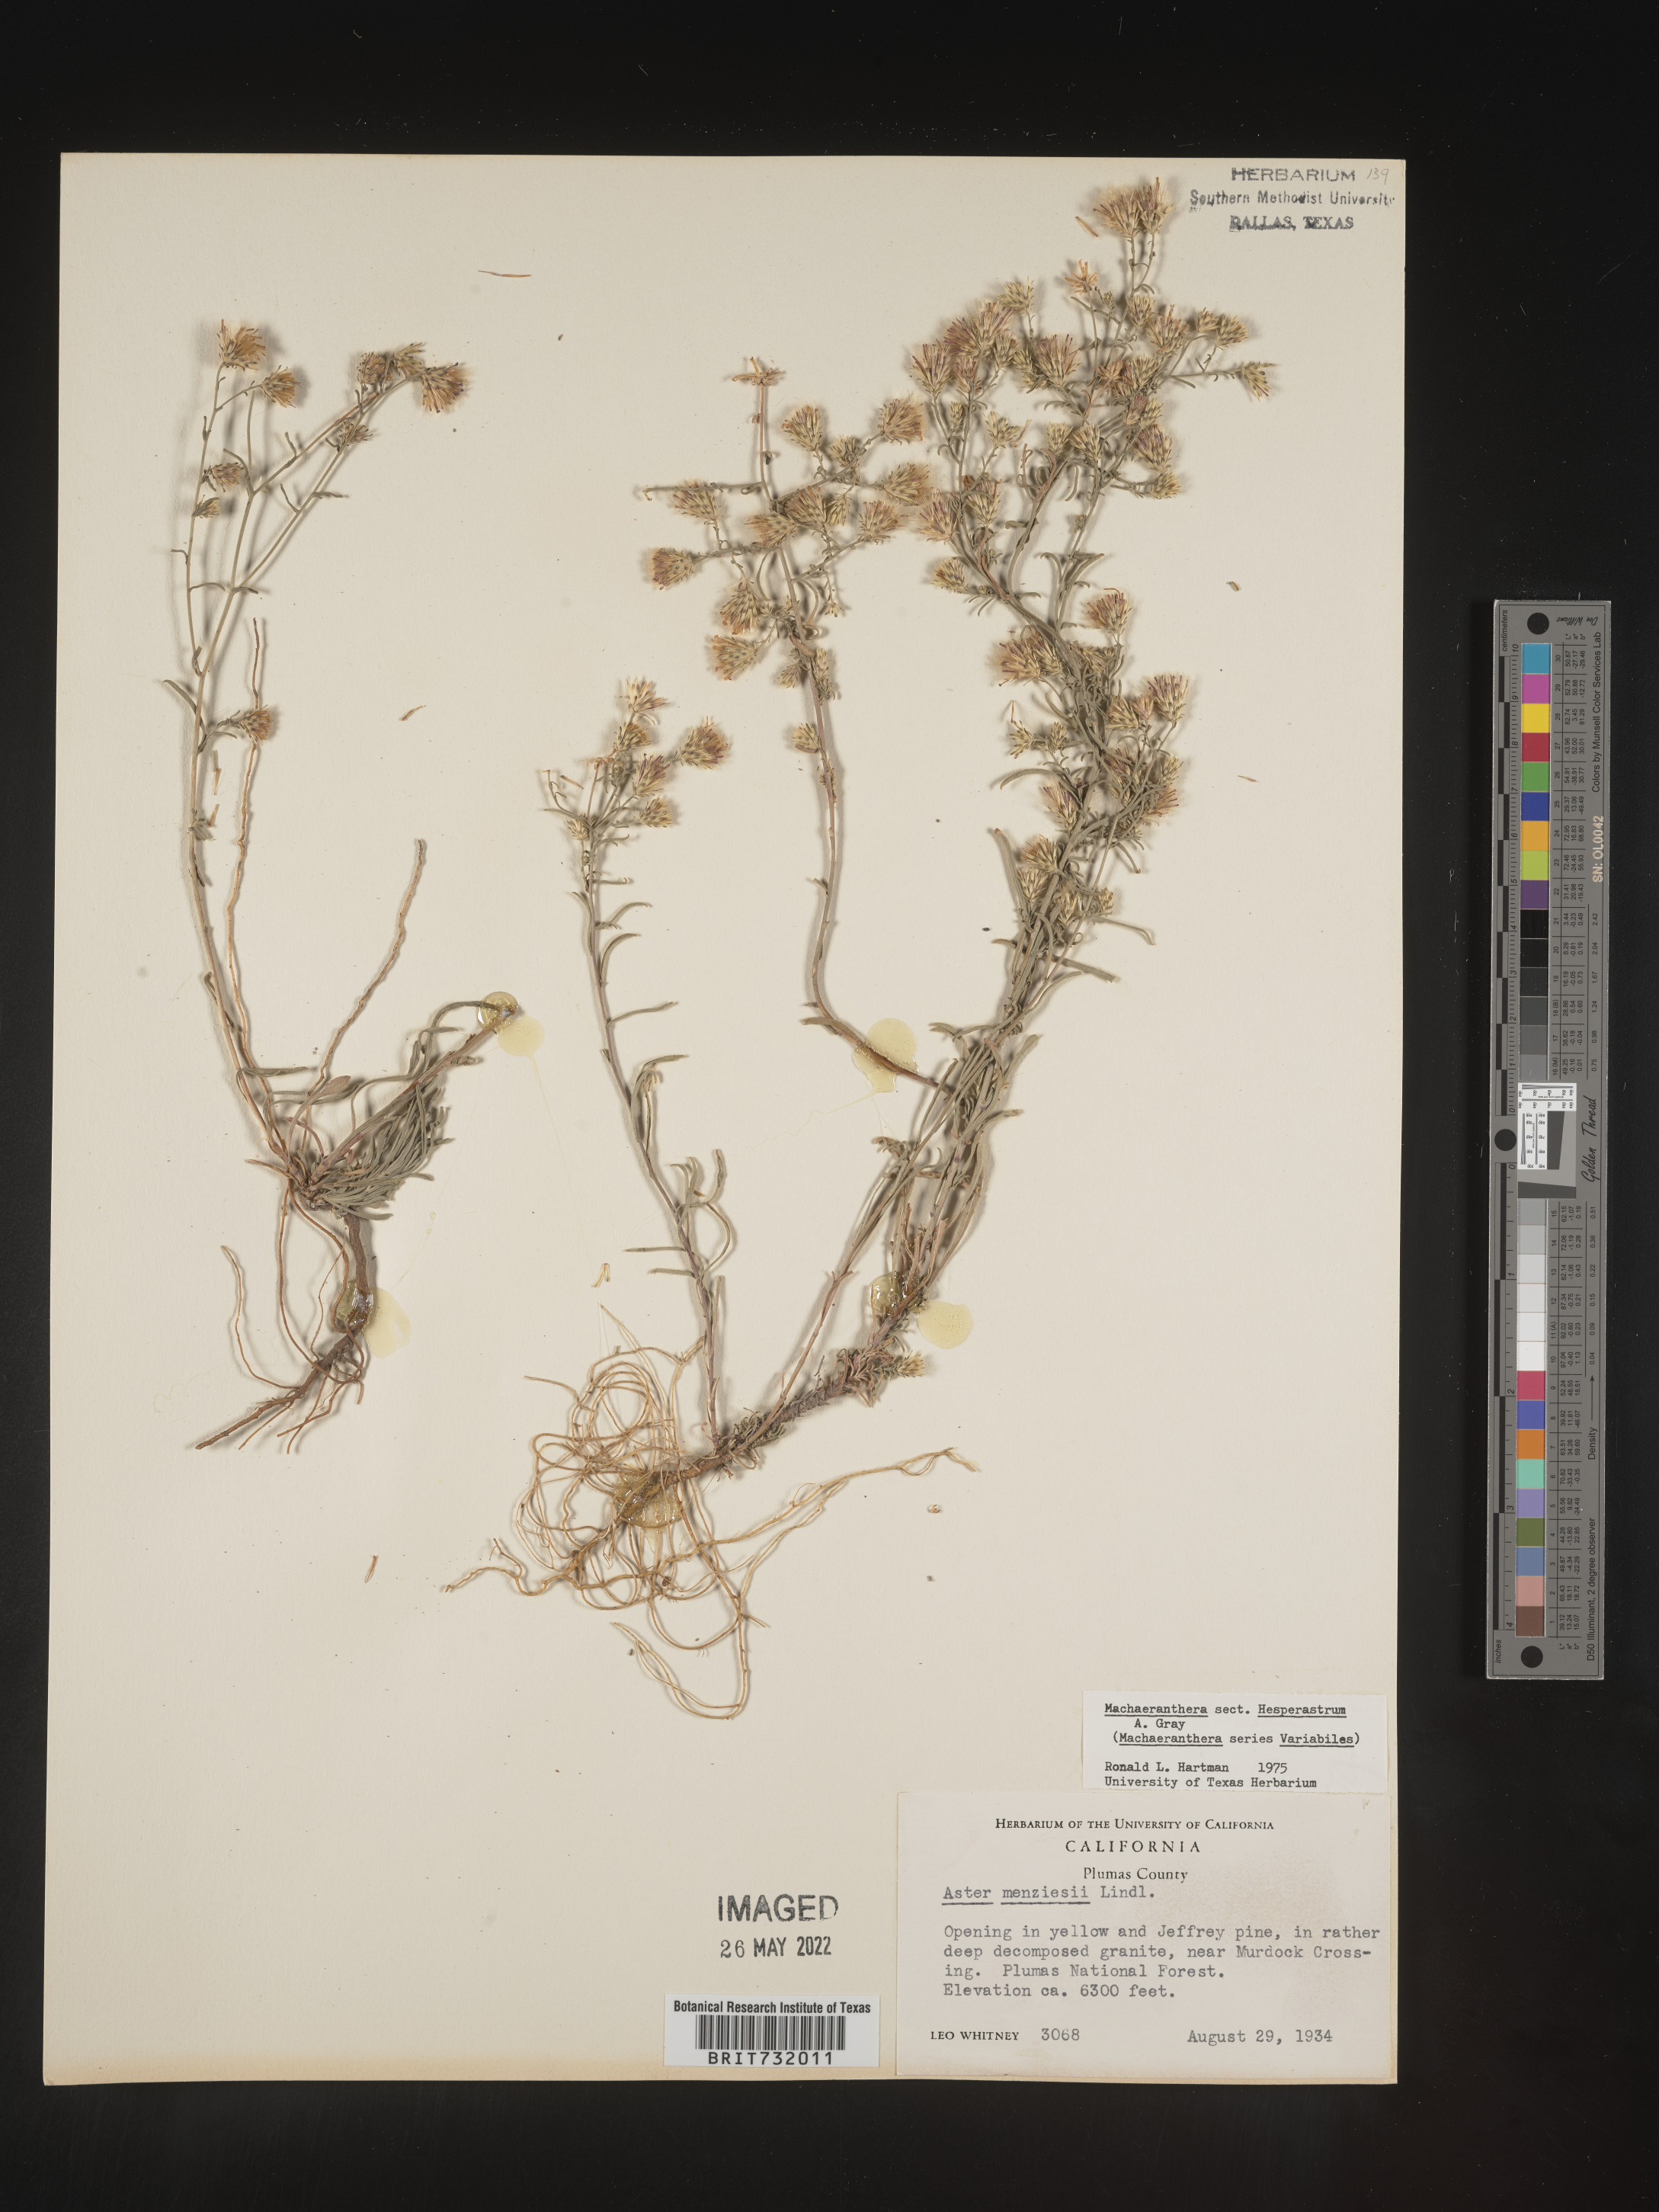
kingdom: Plantae
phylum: Tracheophyta
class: Magnoliopsida
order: Asterales
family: Asteraceae
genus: Machaeranthera
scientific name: Machaeranthera
